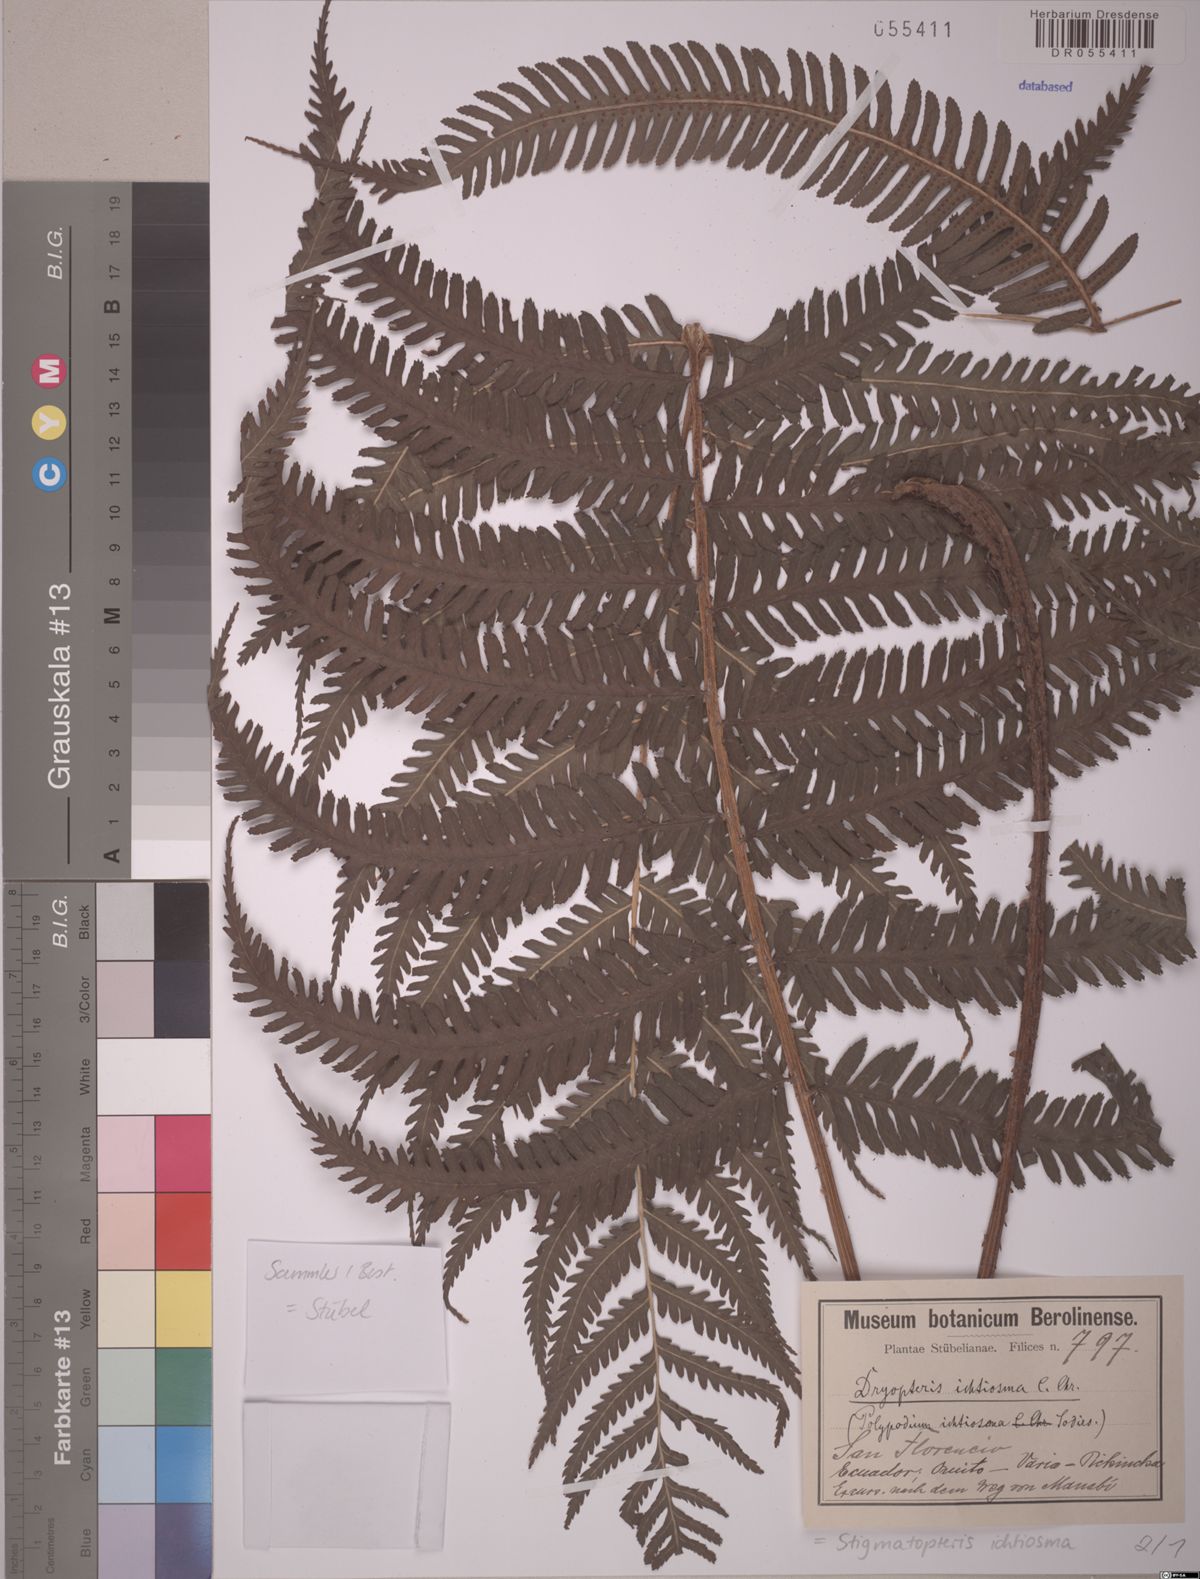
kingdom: Plantae
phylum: Tracheophyta
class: Polypodiopsida
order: Polypodiales
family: Dryopteridaceae
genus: Stigmatopteris
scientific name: Stigmatopteris ichtiosma
